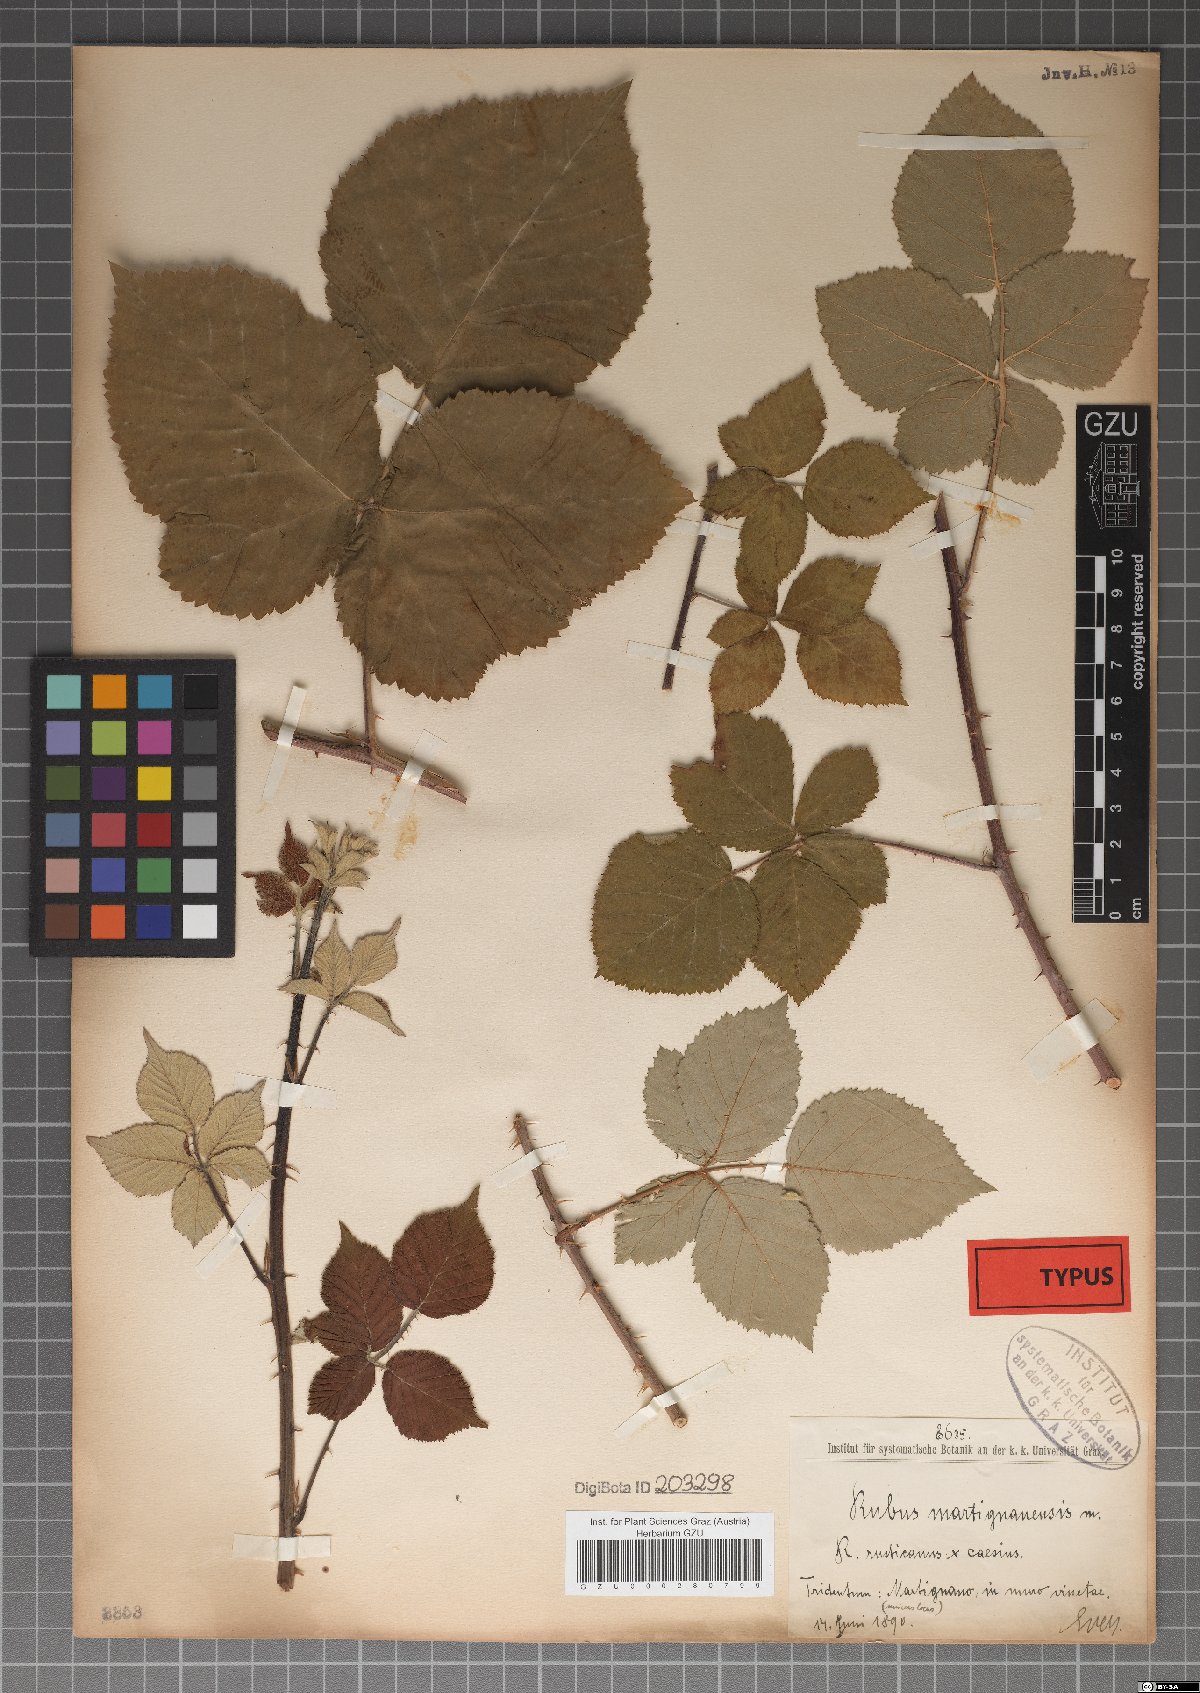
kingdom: Plantae
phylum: Tracheophyta
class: Magnoliopsida
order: Rosales
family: Rosaceae
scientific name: Rosaceae
